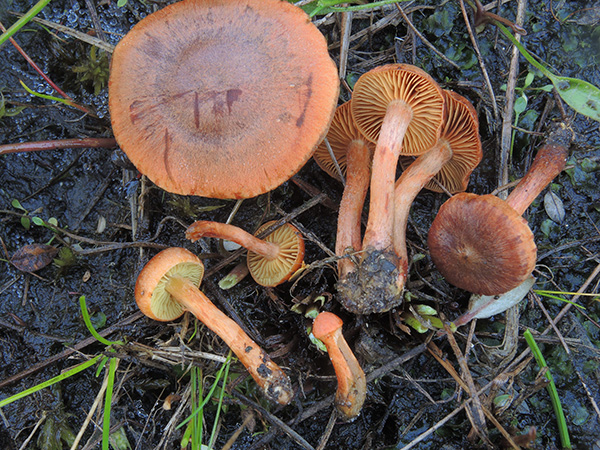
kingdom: Fungi
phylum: Basidiomycota
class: Agaricomycetes
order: Agaricales
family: Cortinariaceae
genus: Cortinarius
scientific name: Cortinarius uliginosus
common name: mose-slørhat
